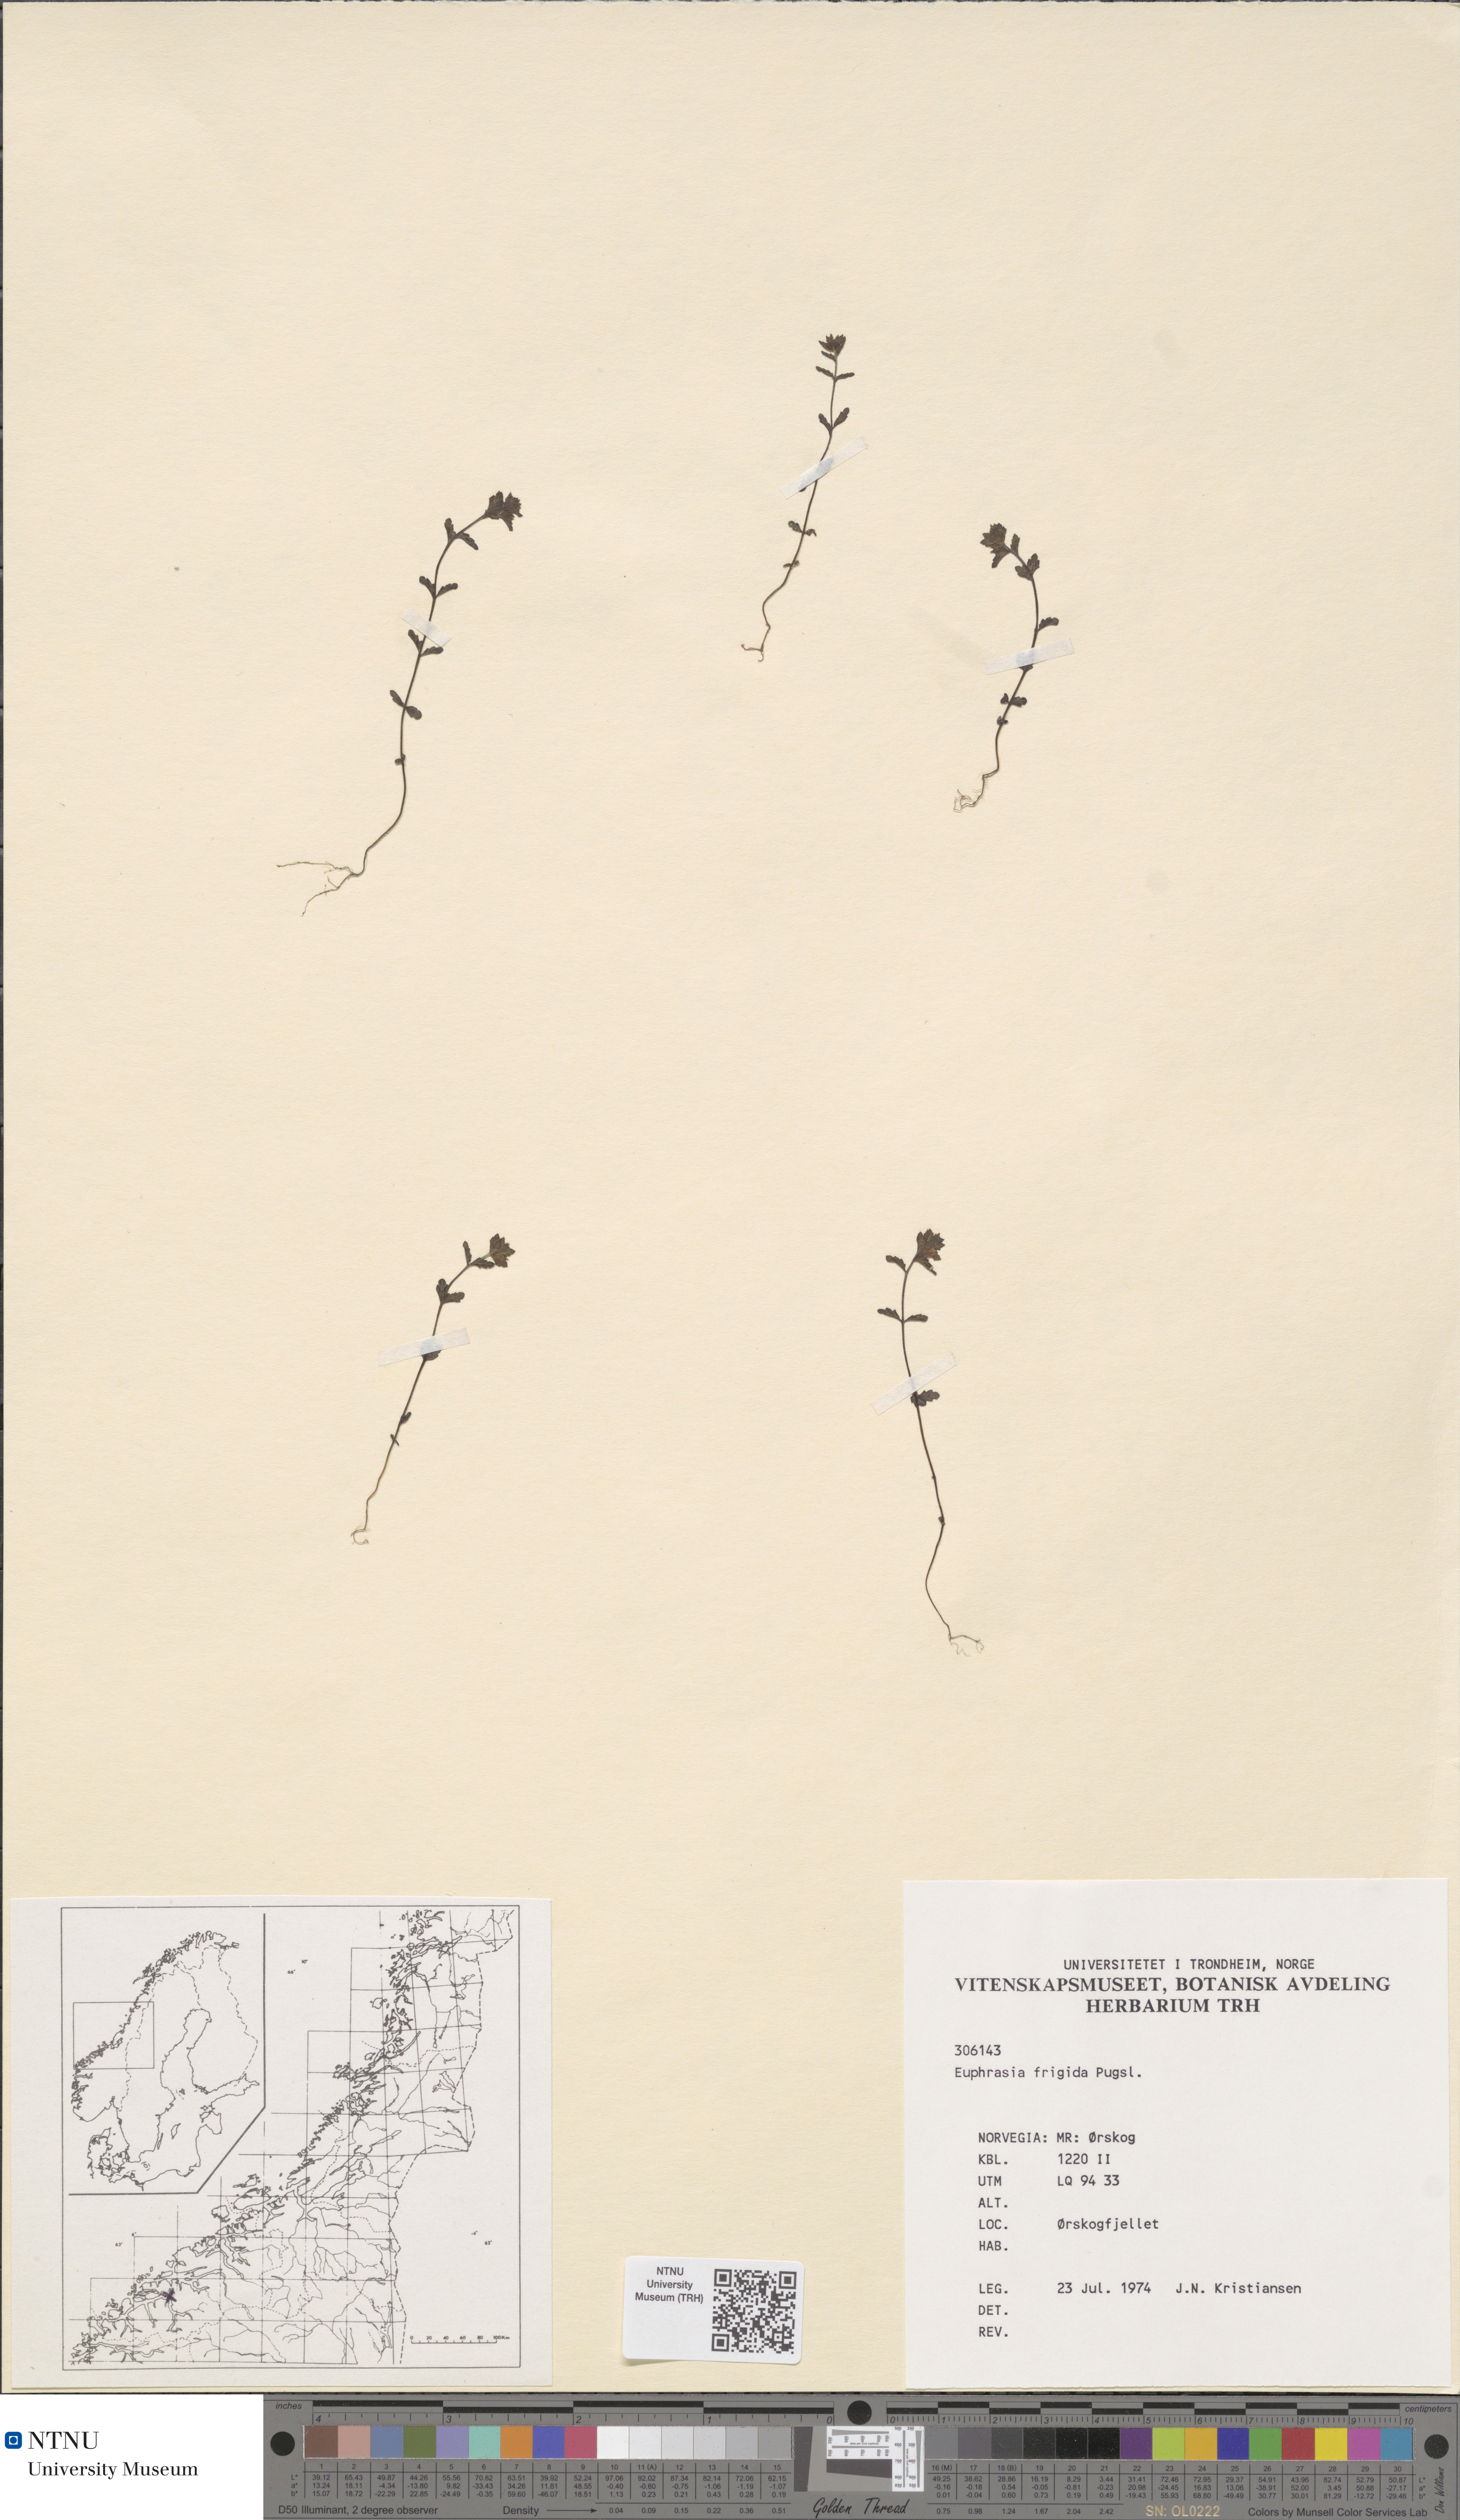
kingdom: Plantae
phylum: Tracheophyta
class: Magnoliopsida
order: Lamiales
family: Orobanchaceae
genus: Euphrasia
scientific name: Euphrasia wettsteinii
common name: Wettstein's eyebright
